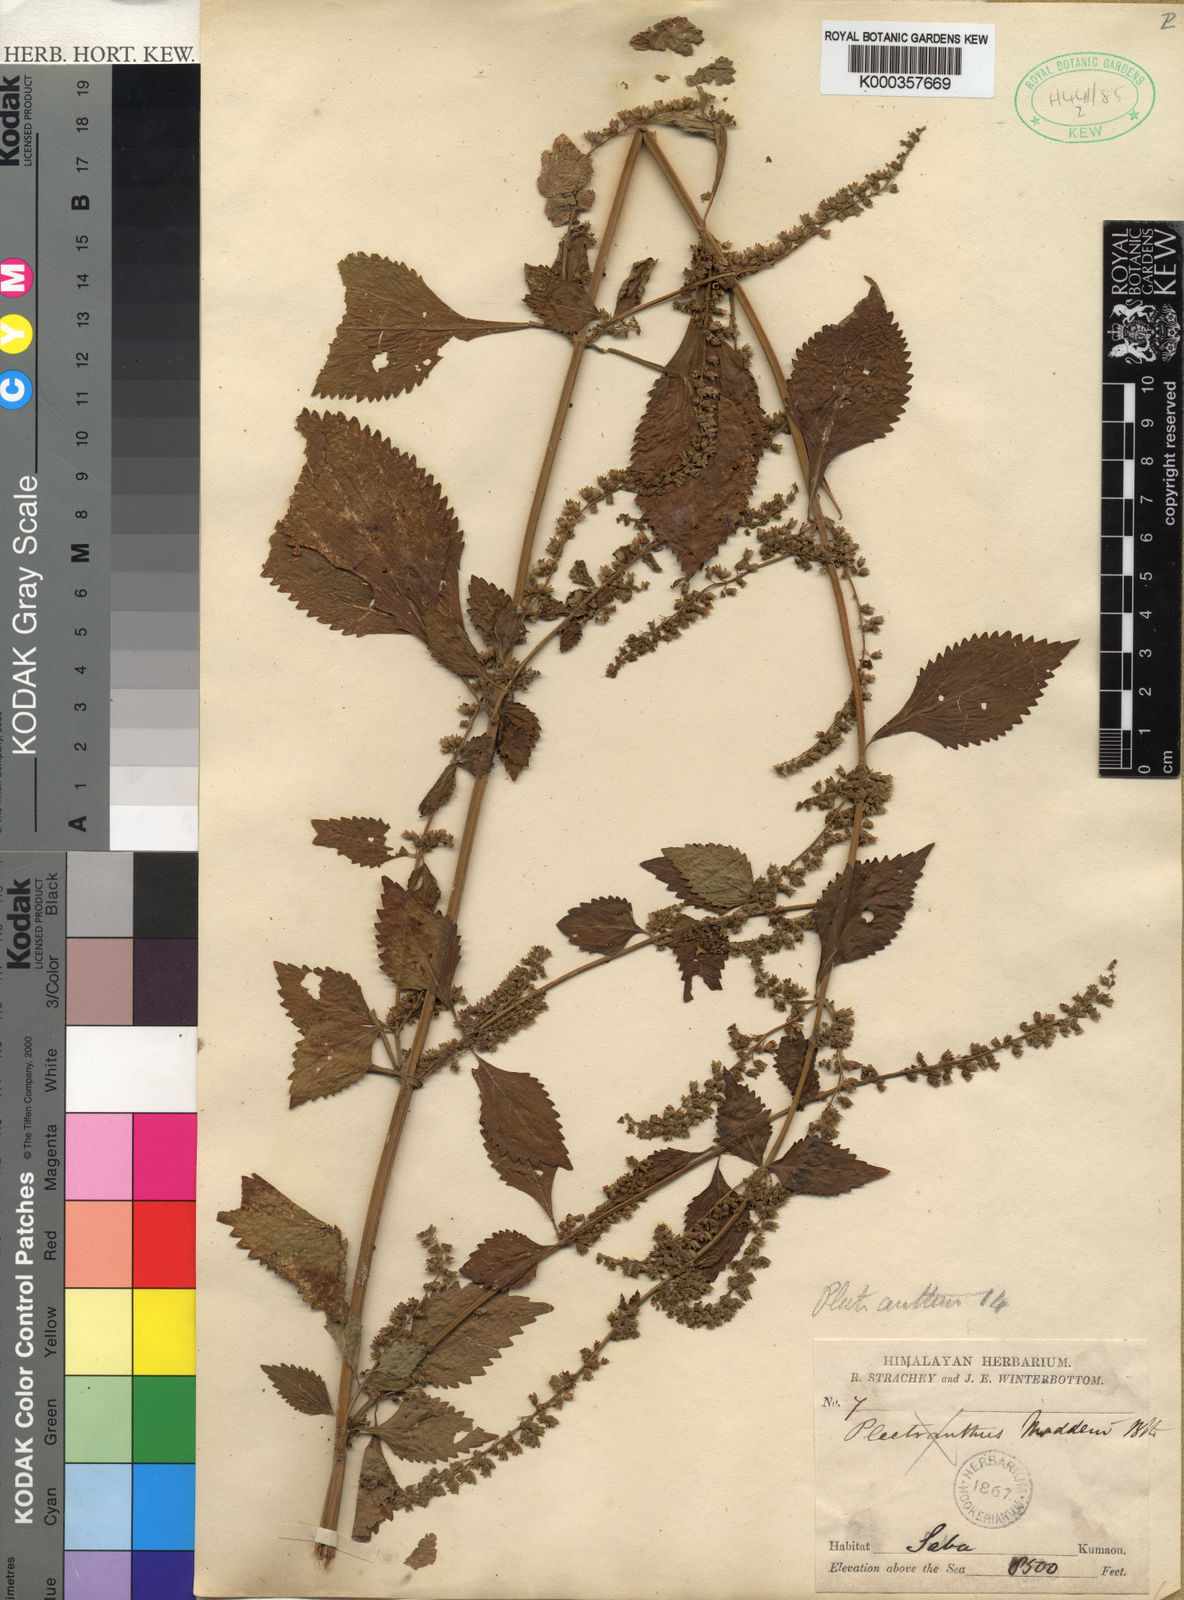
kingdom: Plantae
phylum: Tracheophyta
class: Magnoliopsida
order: Lamiales
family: Lamiaceae
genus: Isodon
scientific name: Isodon
